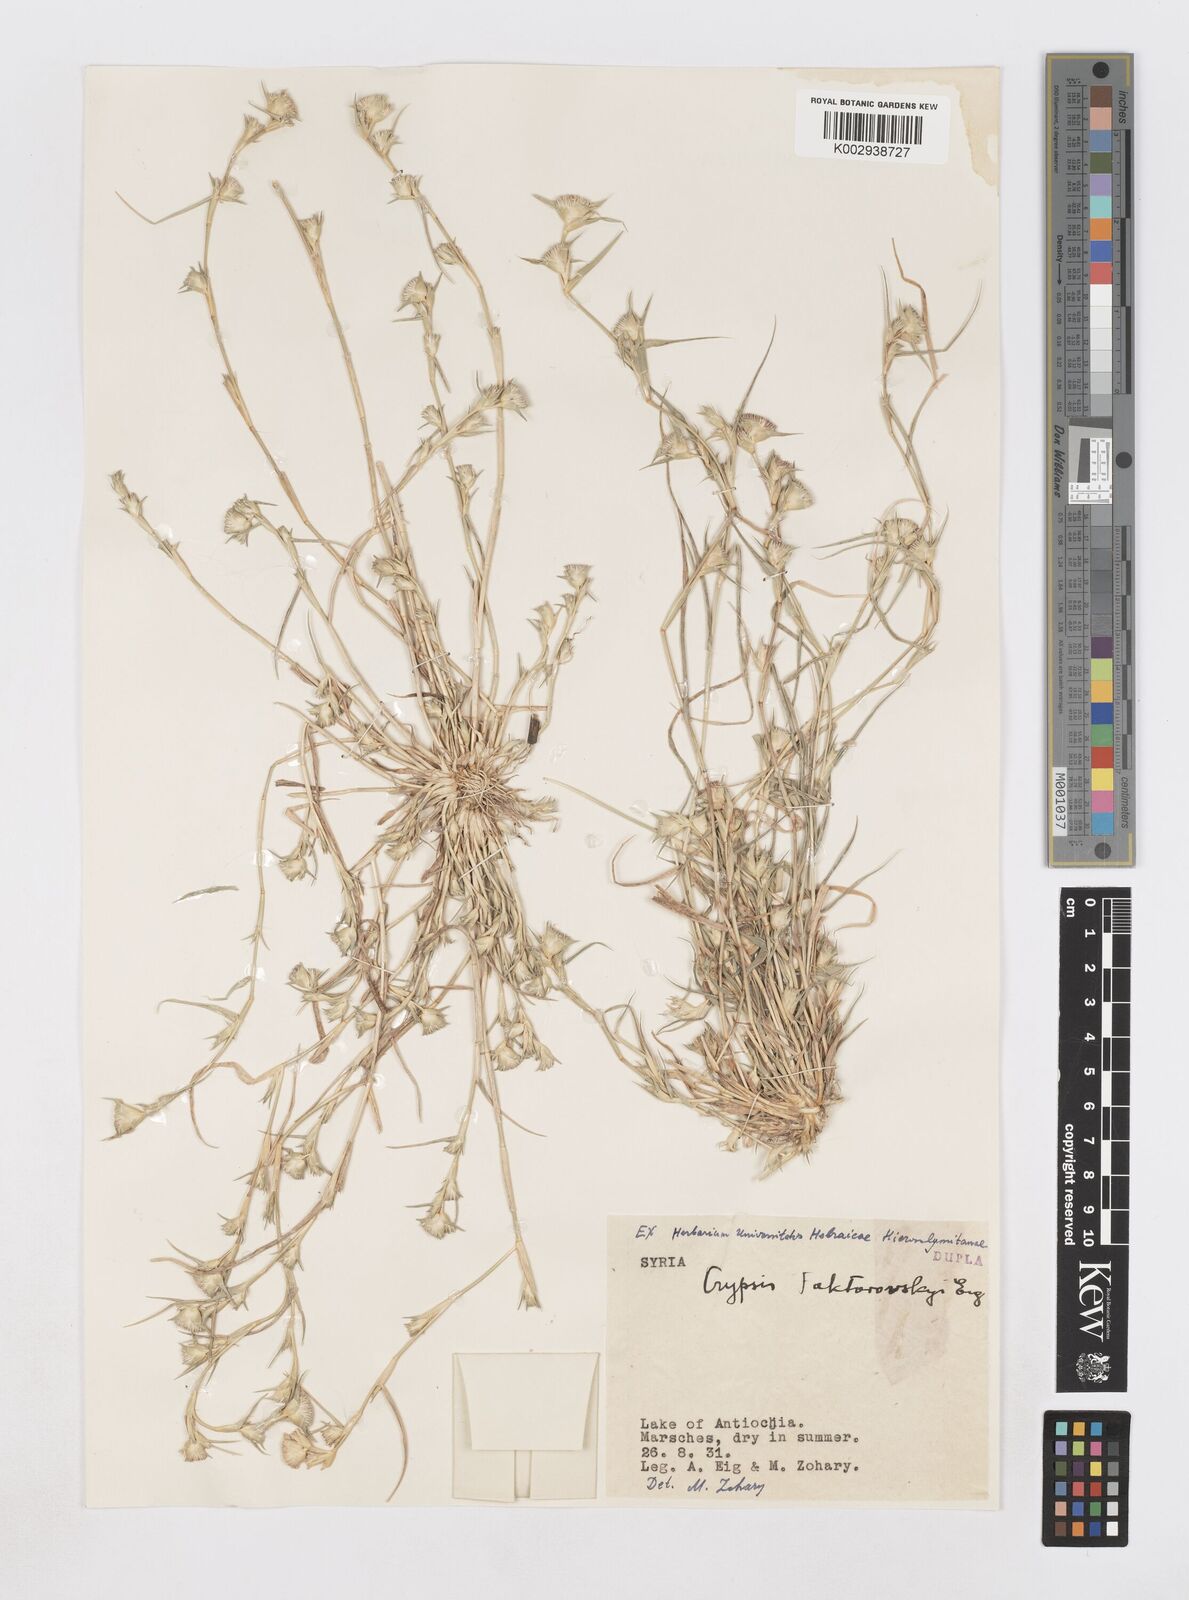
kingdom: Plantae
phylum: Tracheophyta
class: Liliopsida
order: Poales
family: Poaceae
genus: Sporobolus
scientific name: Sporobolus factorovskyi
